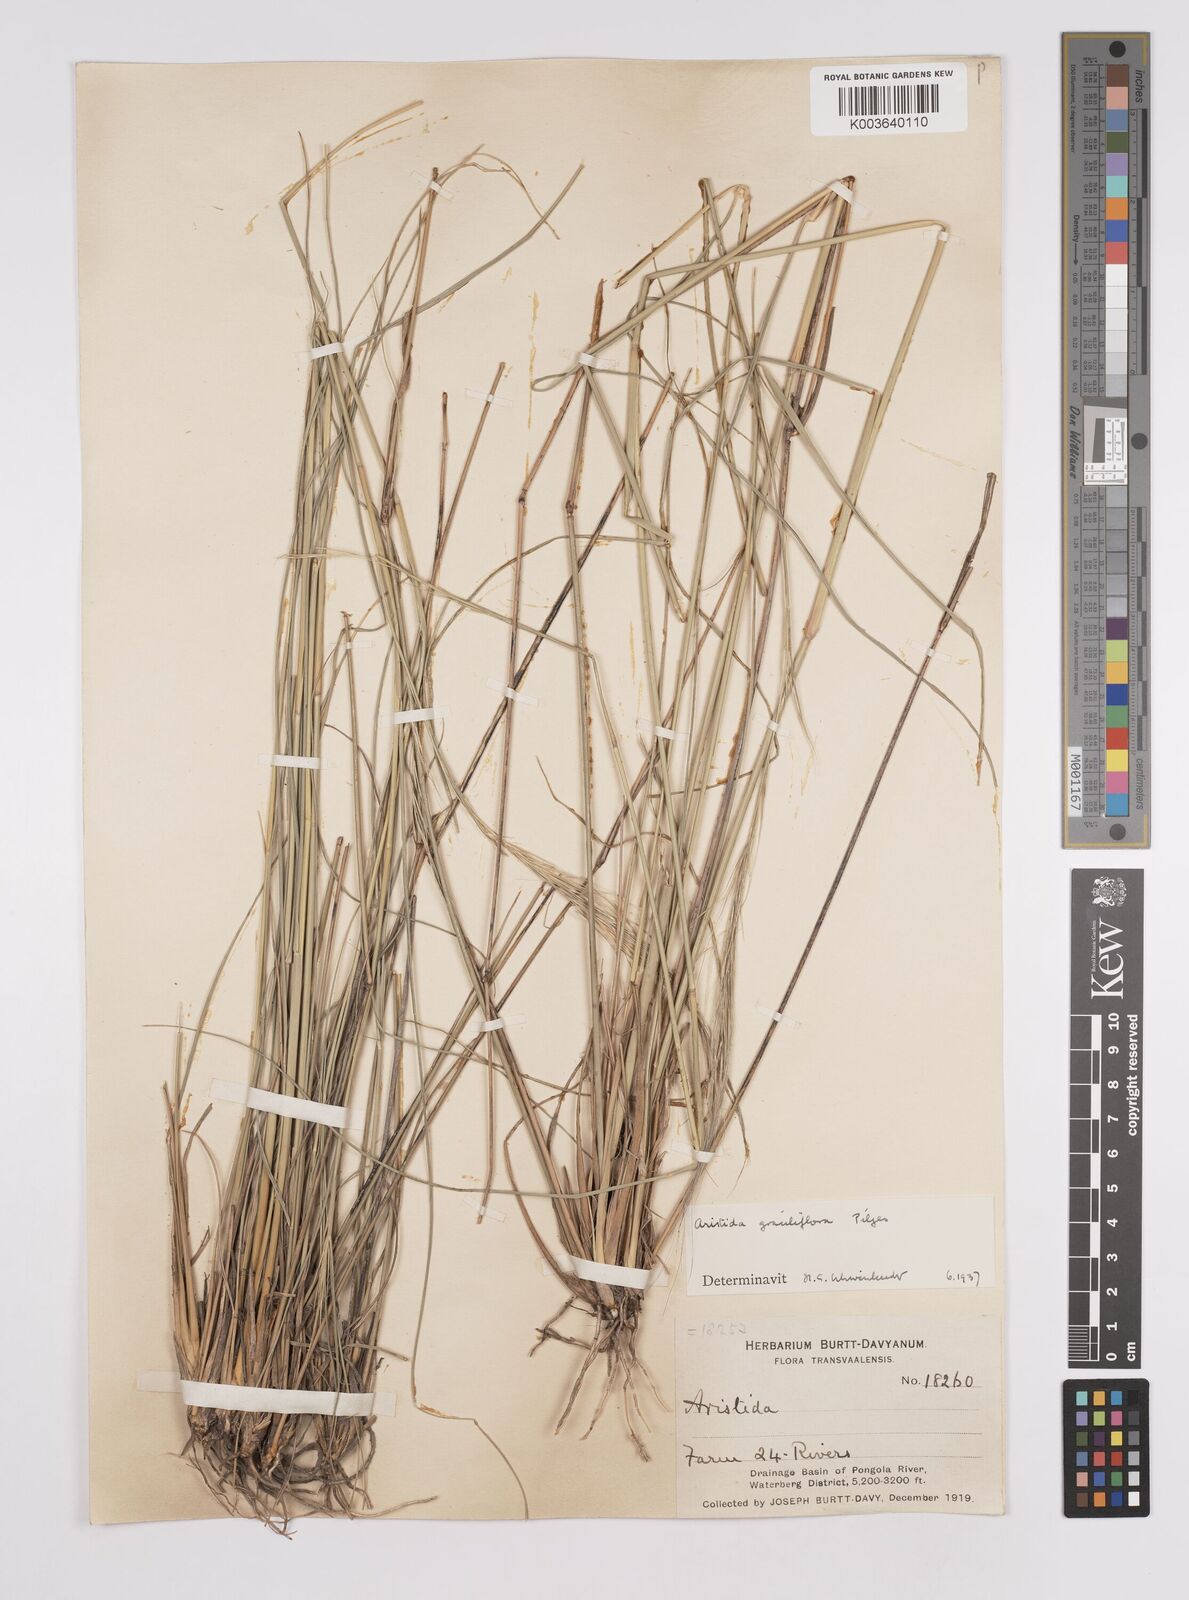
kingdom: Plantae
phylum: Tracheophyta
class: Liliopsida
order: Poales
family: Poaceae
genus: Aristida
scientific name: Aristida stipitata
